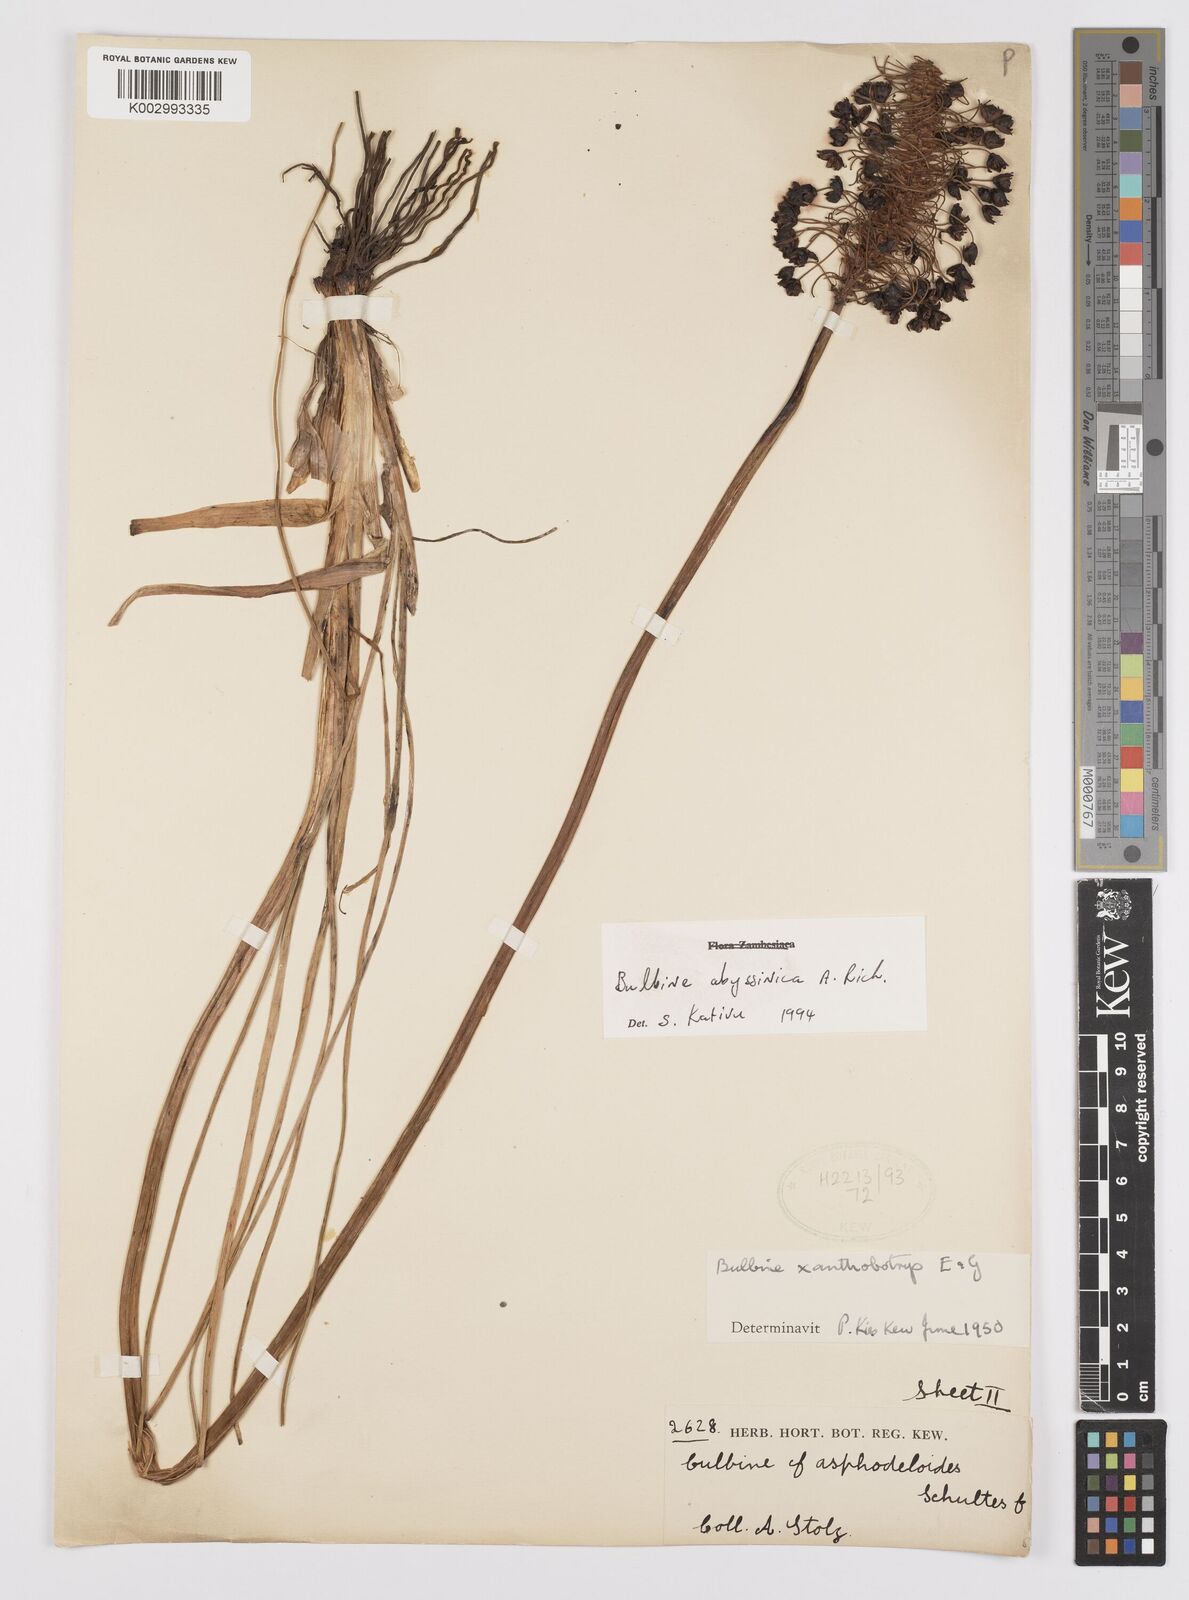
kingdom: Plantae
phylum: Tracheophyta
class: Liliopsida
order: Asparagales
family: Asphodelaceae
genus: Bulbine
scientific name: Bulbine abyssinica
